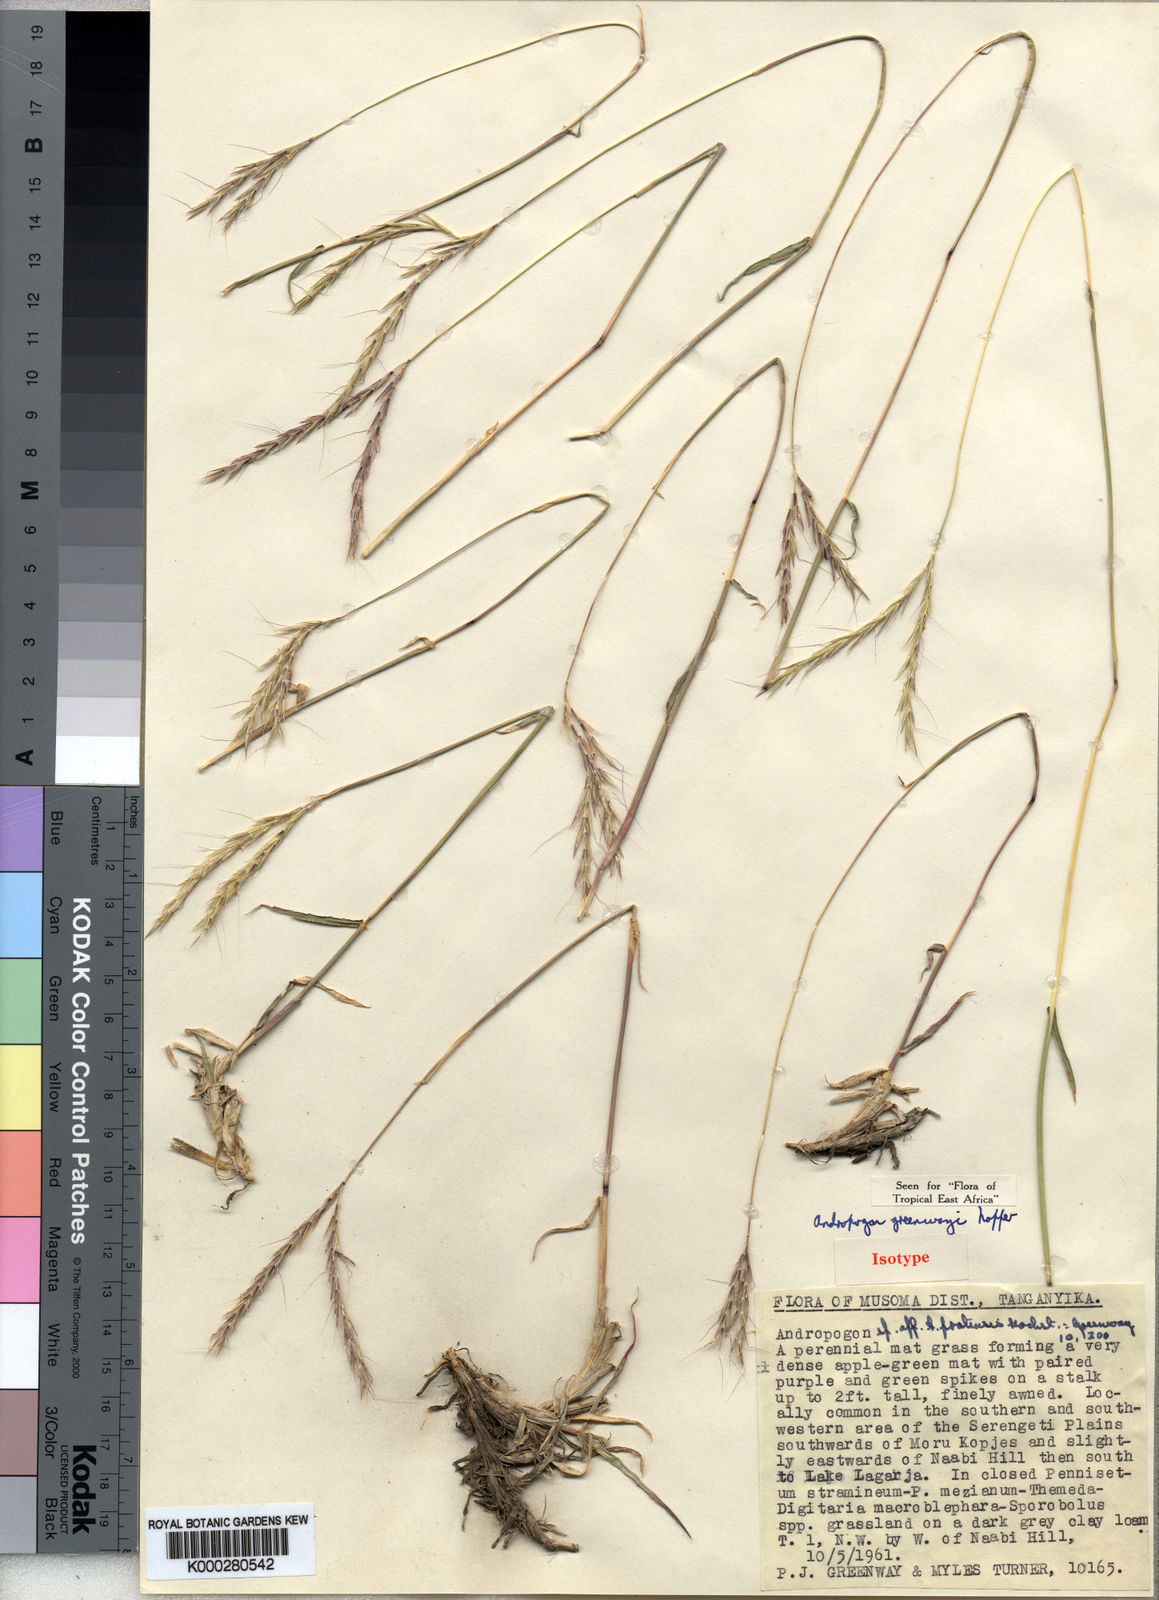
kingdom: Plantae
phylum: Tracheophyta
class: Liliopsida
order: Poales
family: Poaceae
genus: Andropogon
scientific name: Andropogon greenwayi
